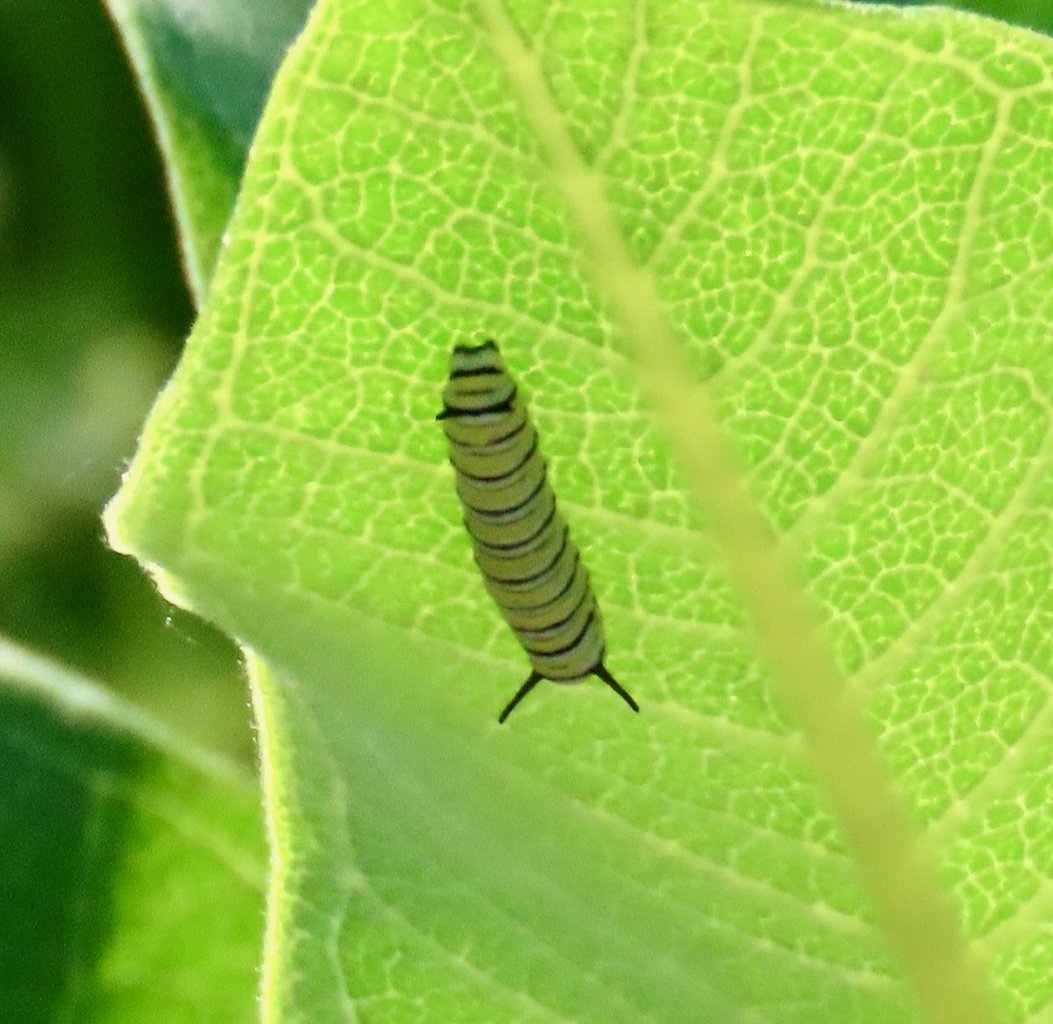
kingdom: Animalia
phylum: Arthropoda
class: Insecta
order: Lepidoptera
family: Nymphalidae
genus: Danaus
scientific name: Danaus plexippus
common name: Monarch
